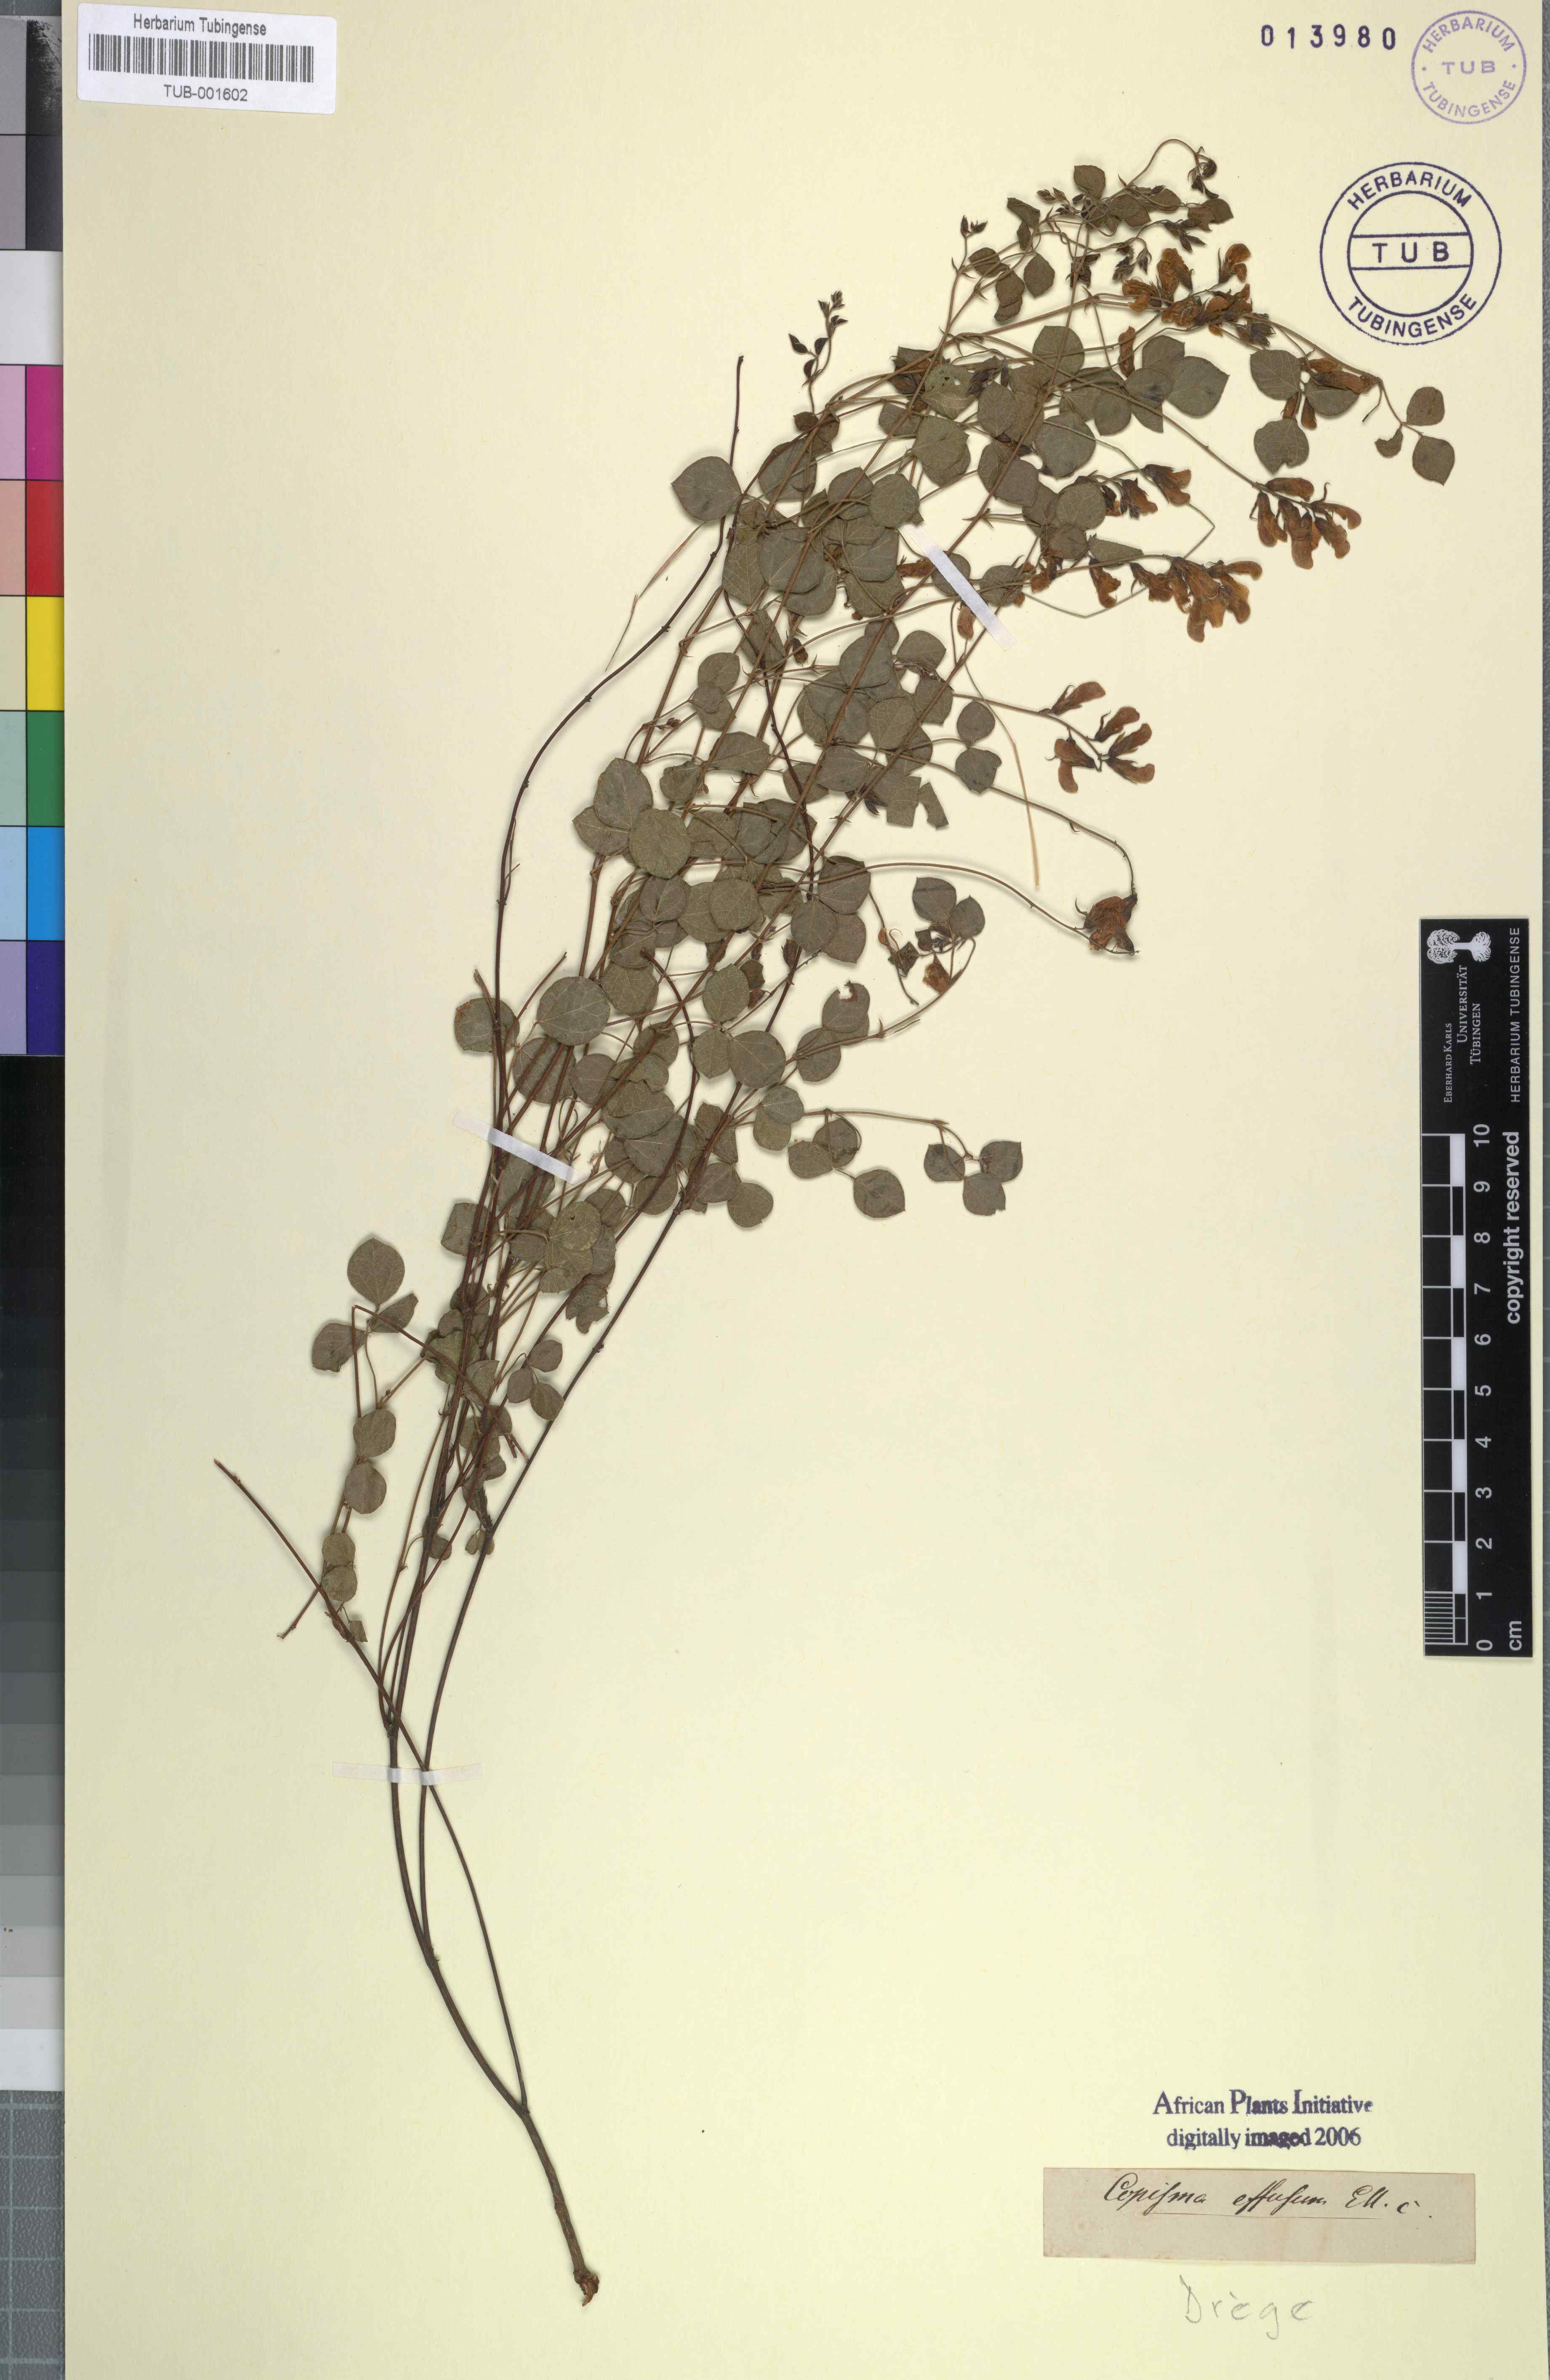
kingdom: Plantae
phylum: Tracheophyta
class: Magnoliopsida
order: Fabales
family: Fabaceae
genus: Rhynchosia
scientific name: Rhynchosia adenodes
